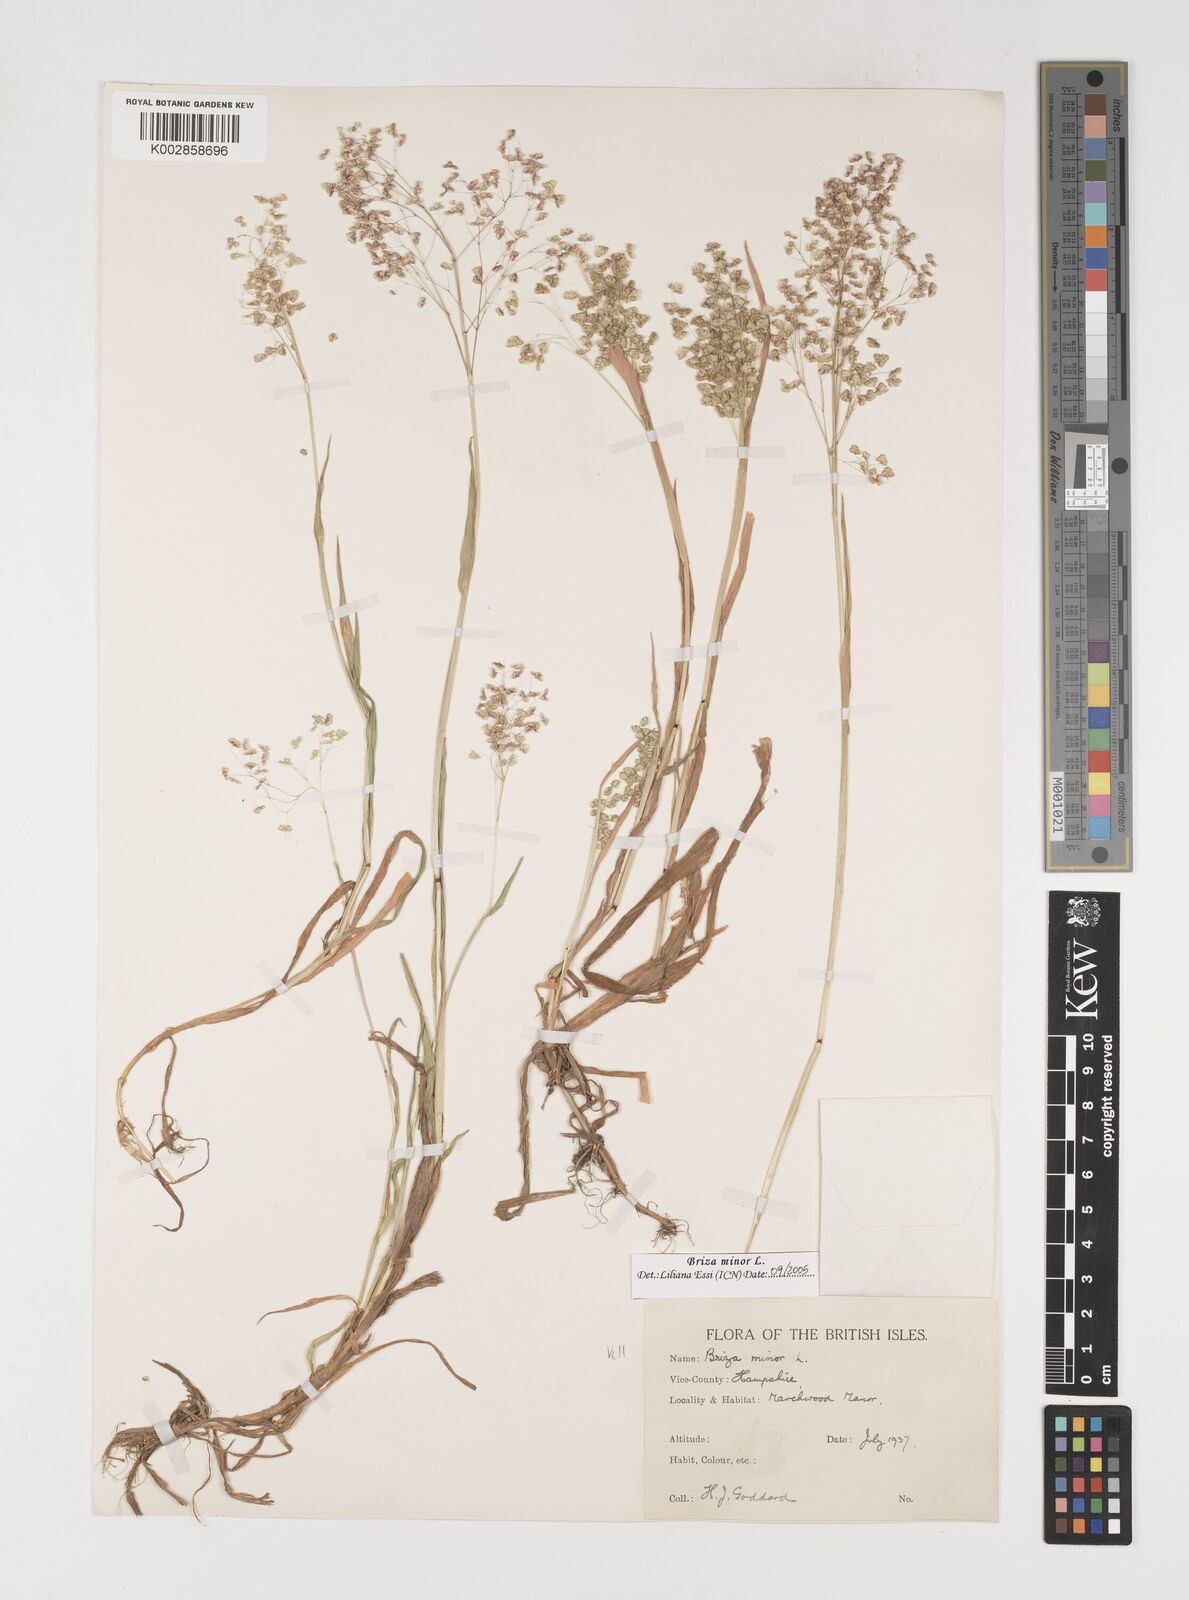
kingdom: Plantae
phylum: Tracheophyta
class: Liliopsida
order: Poales
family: Poaceae
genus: Briza
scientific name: Briza minor
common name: Lesser quaking-grass
